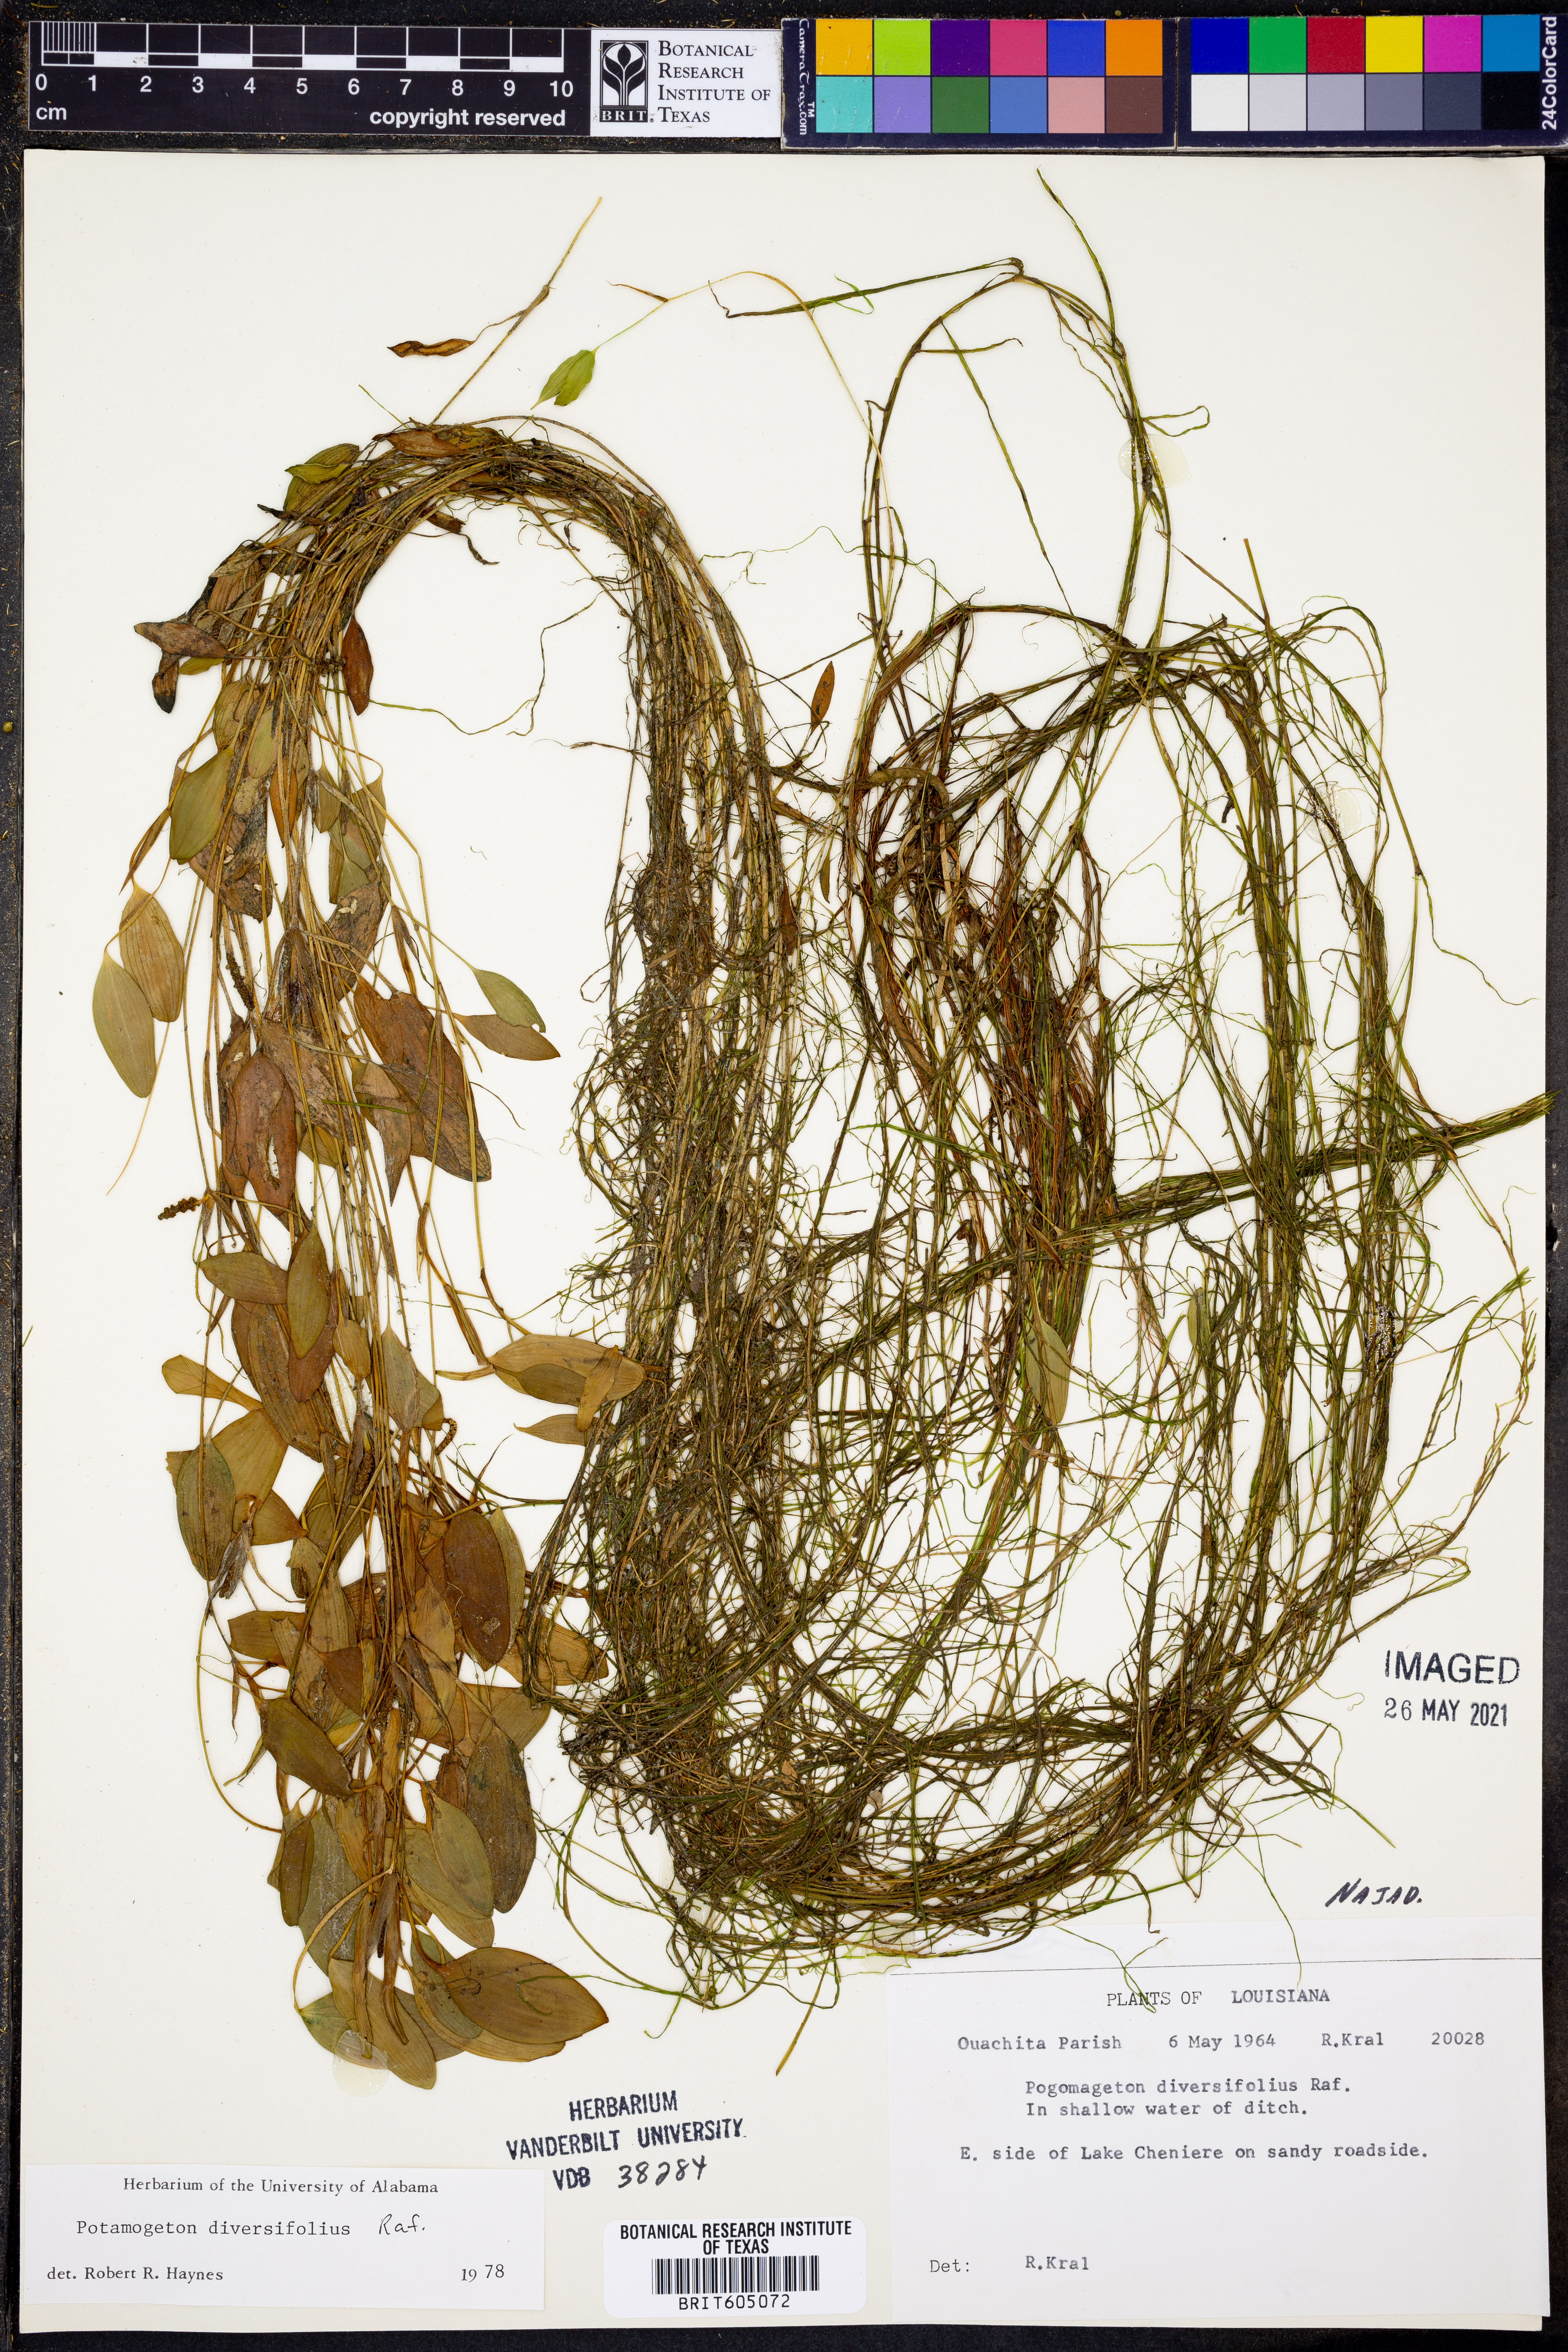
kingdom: Plantae
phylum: Tracheophyta
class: Liliopsida
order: Alismatales
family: Potamogetonaceae
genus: Potamogeton
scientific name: Potamogeton diversifolius
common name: Water-thread pondweed
